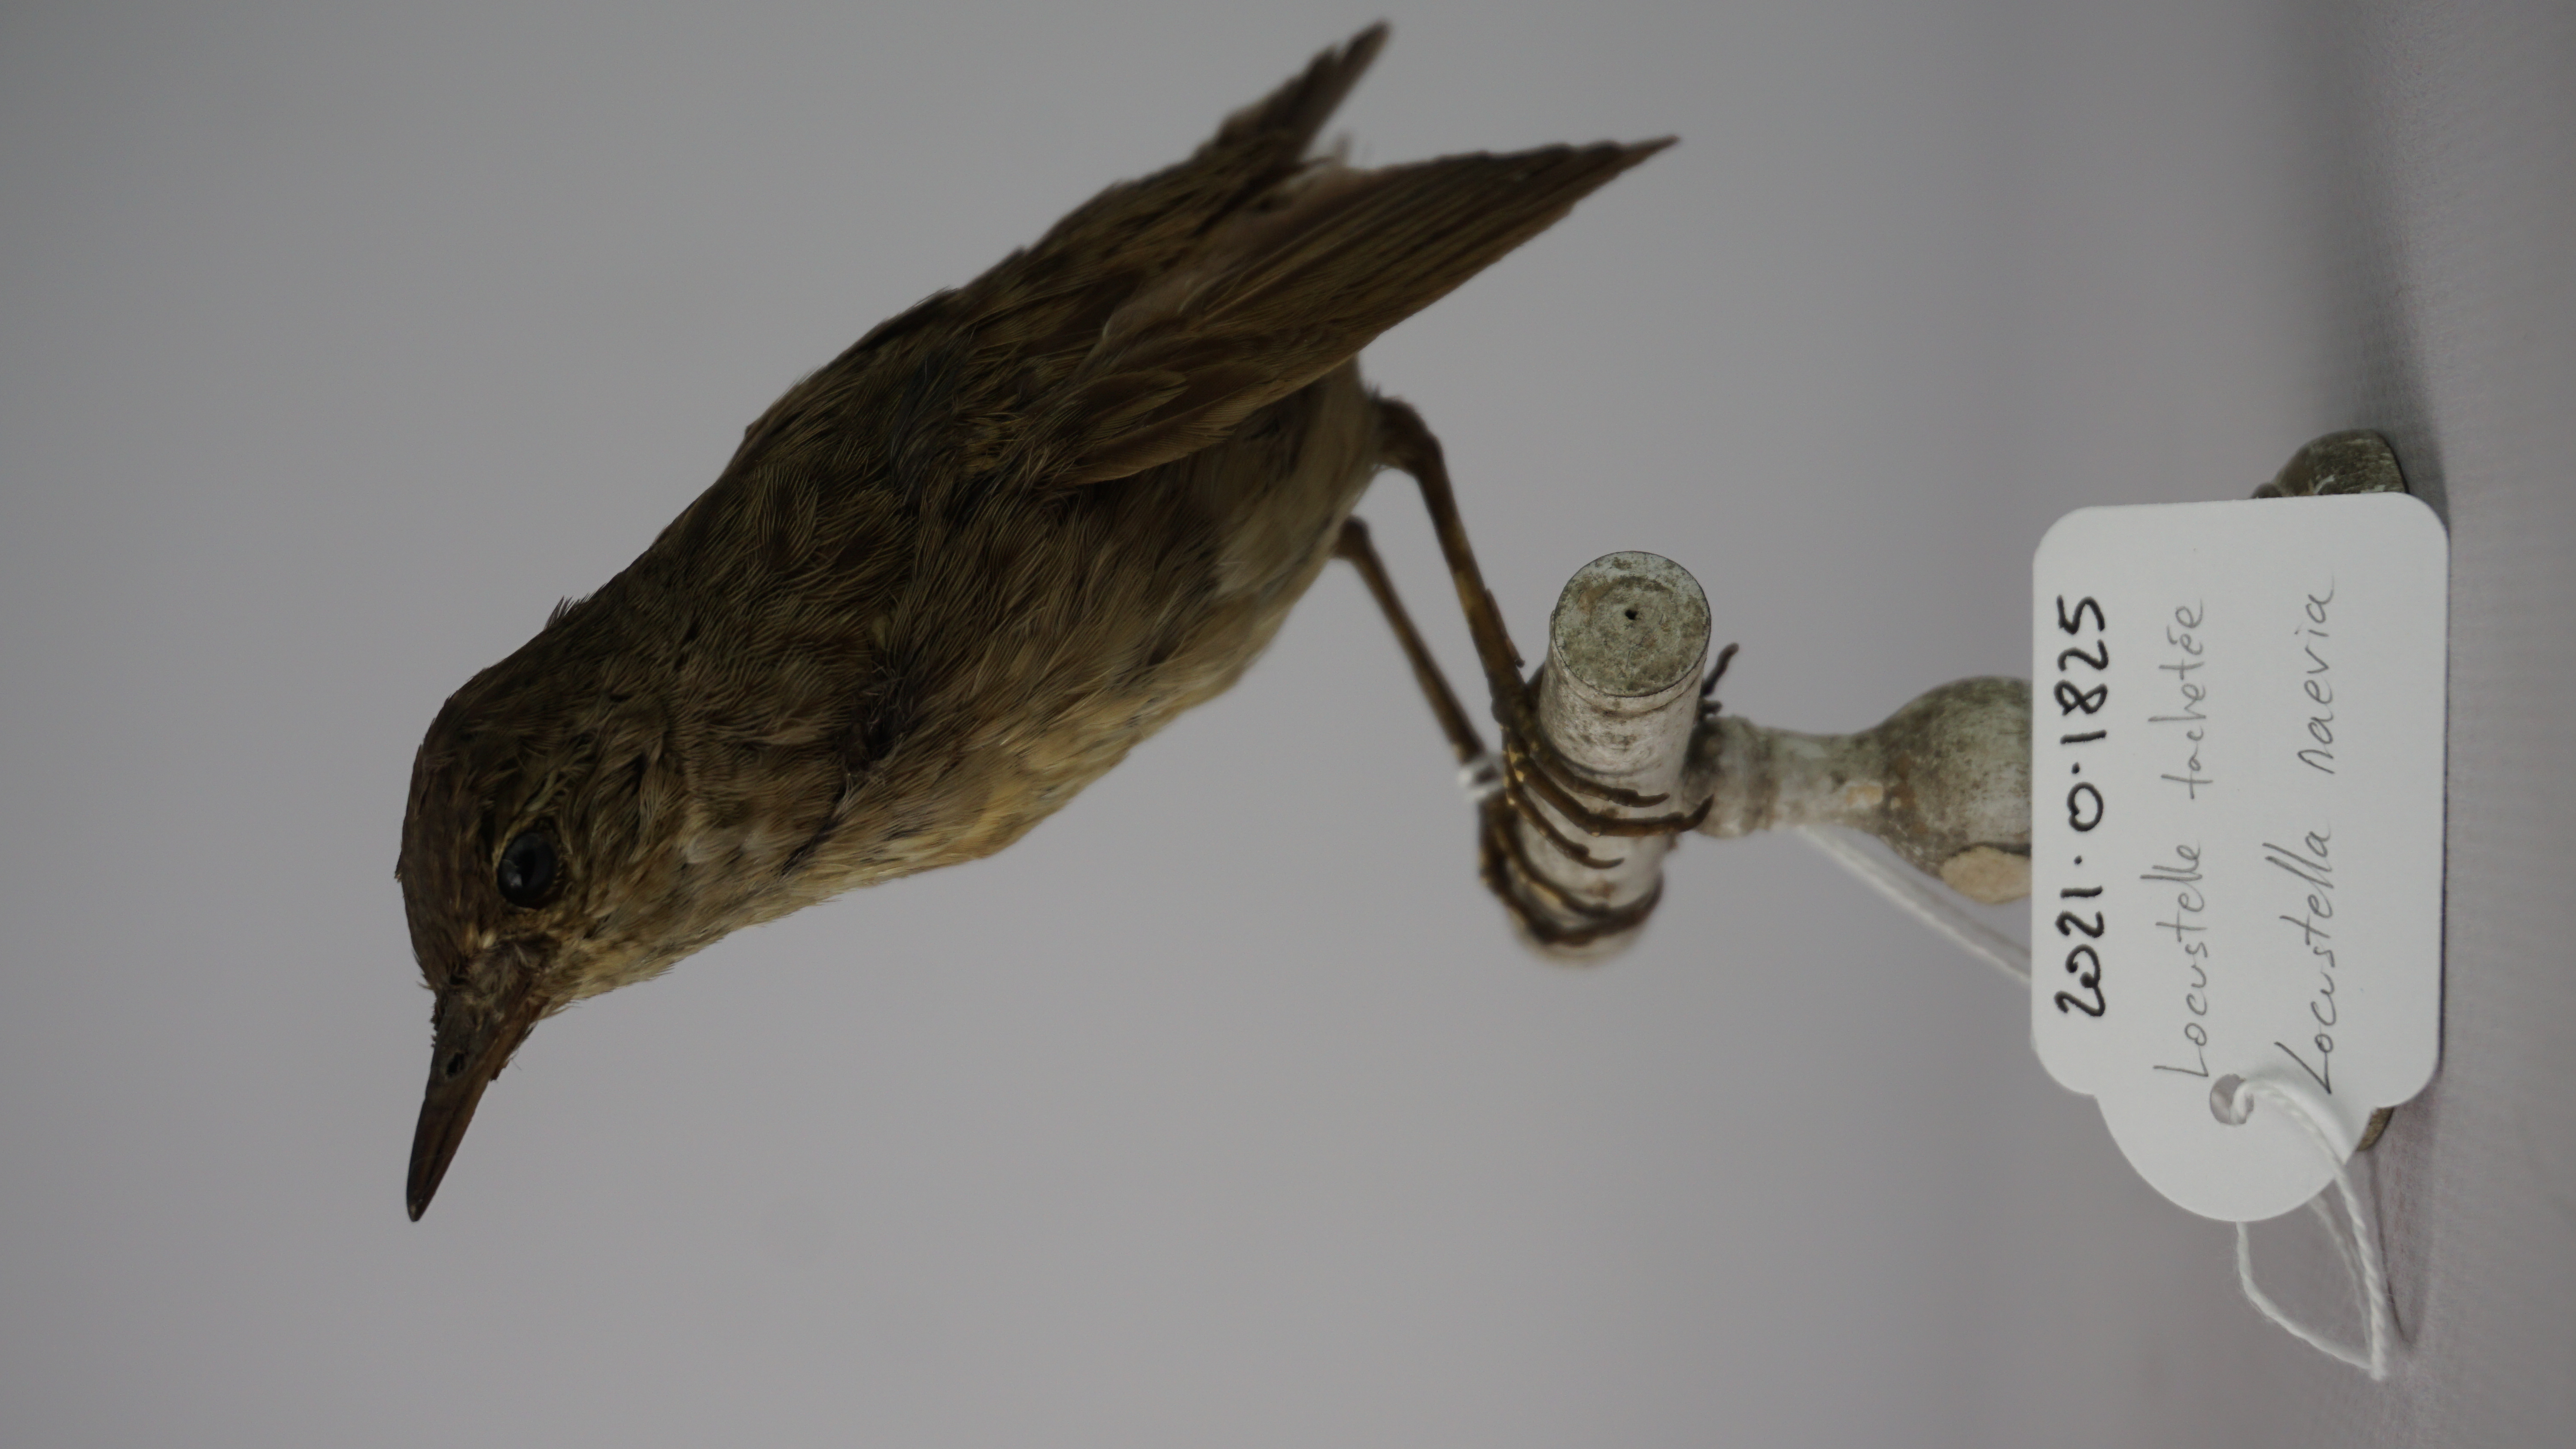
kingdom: Animalia
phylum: Chordata
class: Aves
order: Passeriformes
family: Locustellidae
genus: Locustella
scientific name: Locustella naevia
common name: Common grasshopper warbler
